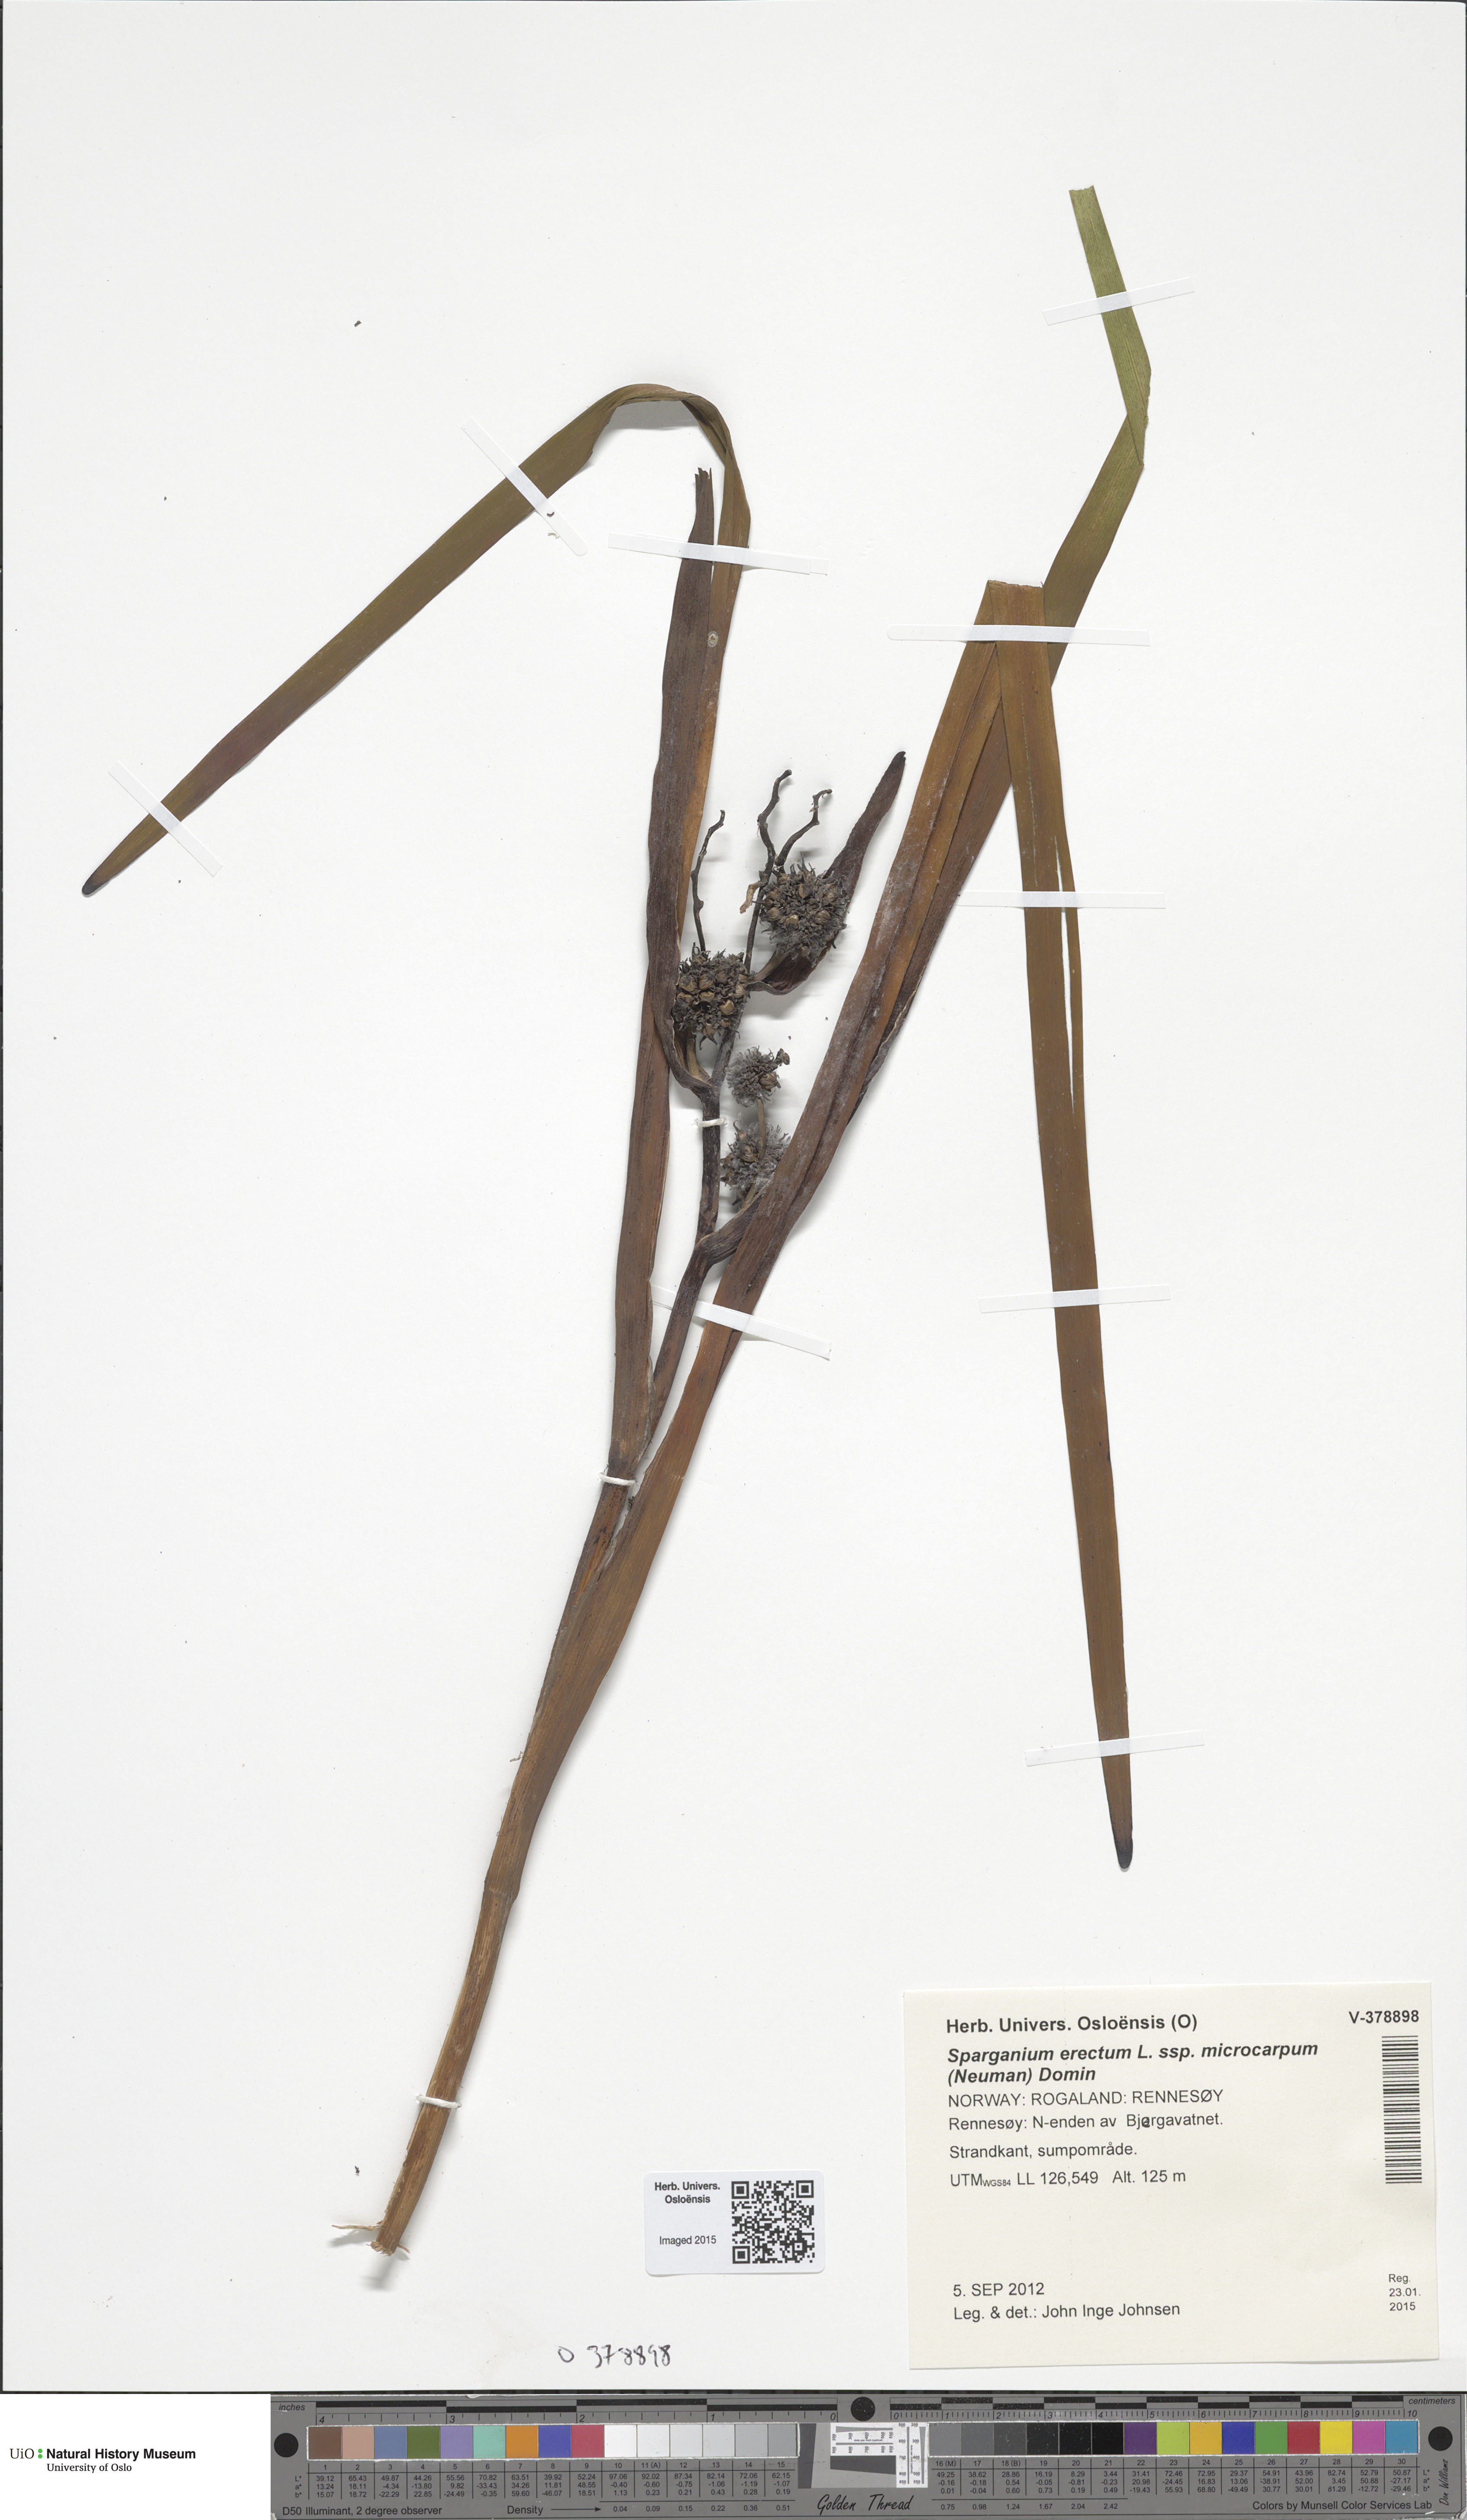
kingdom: Plantae
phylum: Tracheophyta
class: Liliopsida
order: Poales
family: Typhaceae
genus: Sparganium
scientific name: Sparganium erectum
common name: Branched bur-reed
